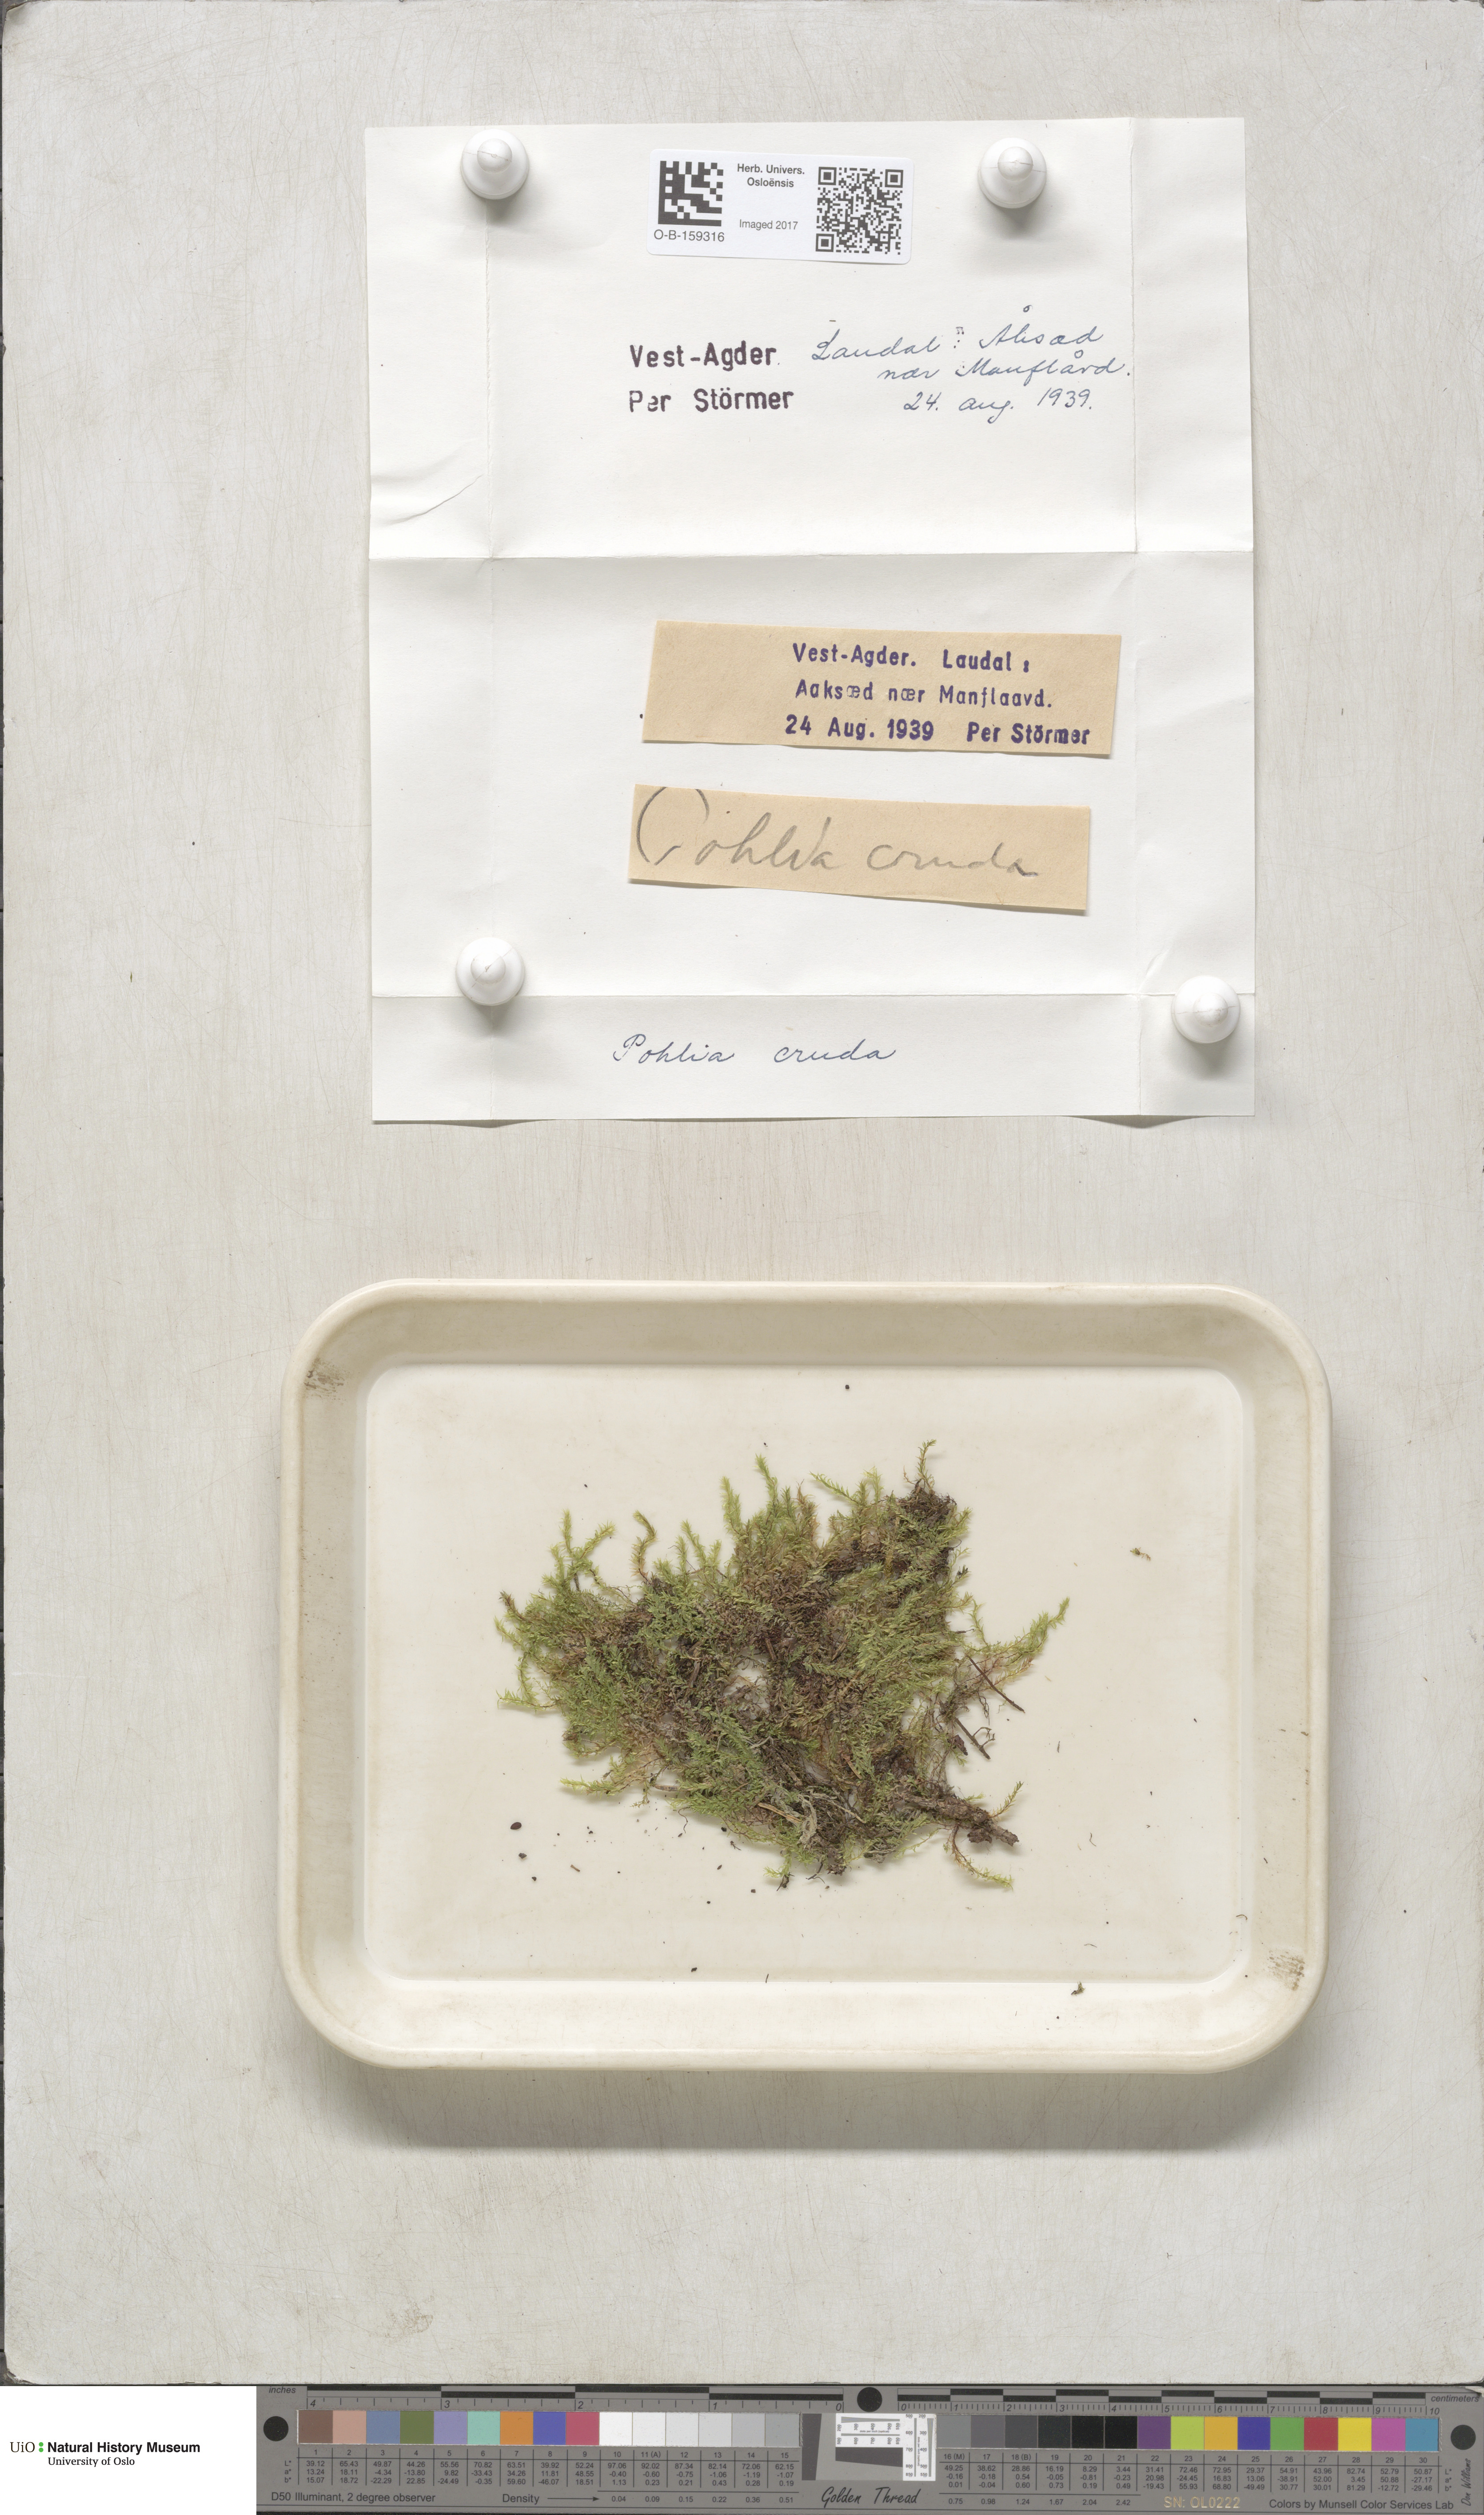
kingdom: Plantae
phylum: Bryophyta
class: Bryopsida
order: Bryales
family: Mniaceae
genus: Pohlia
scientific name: Pohlia cruda
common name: Opal nodding moss
